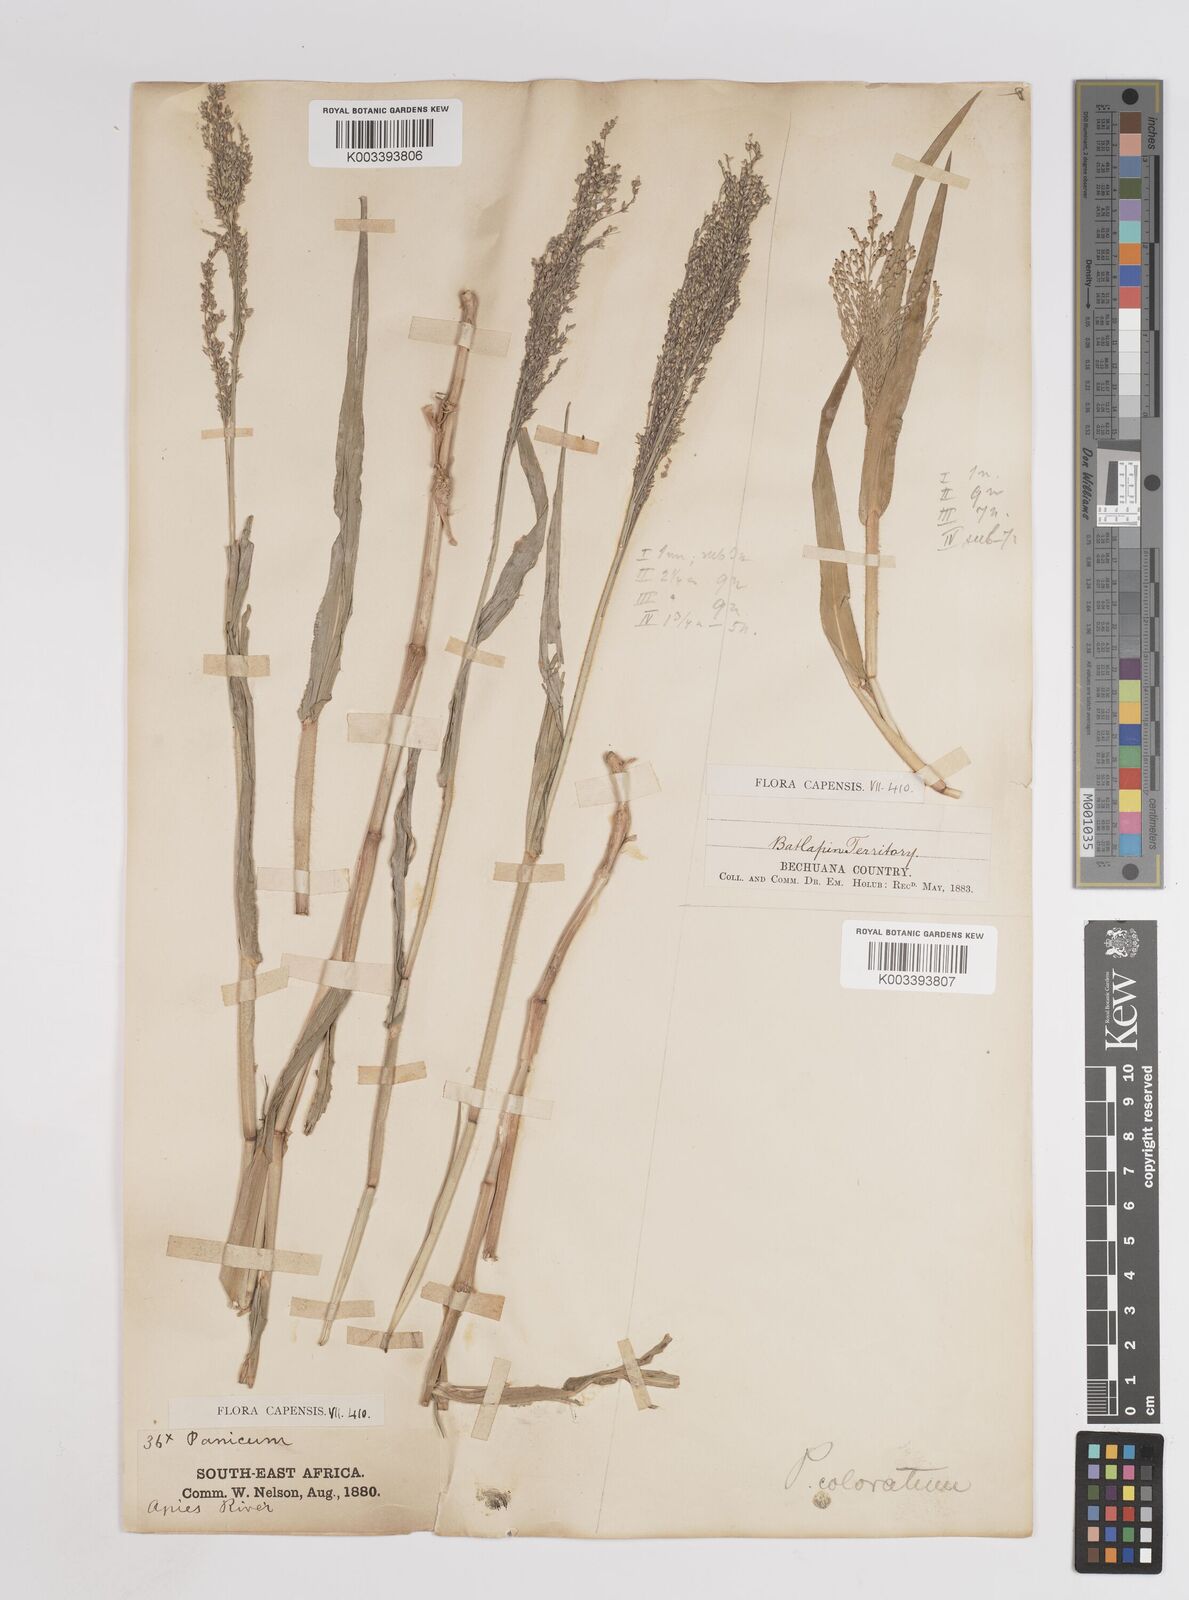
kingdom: Plantae
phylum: Tracheophyta
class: Liliopsida
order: Poales
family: Poaceae
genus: Panicum
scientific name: Panicum novemnerve
